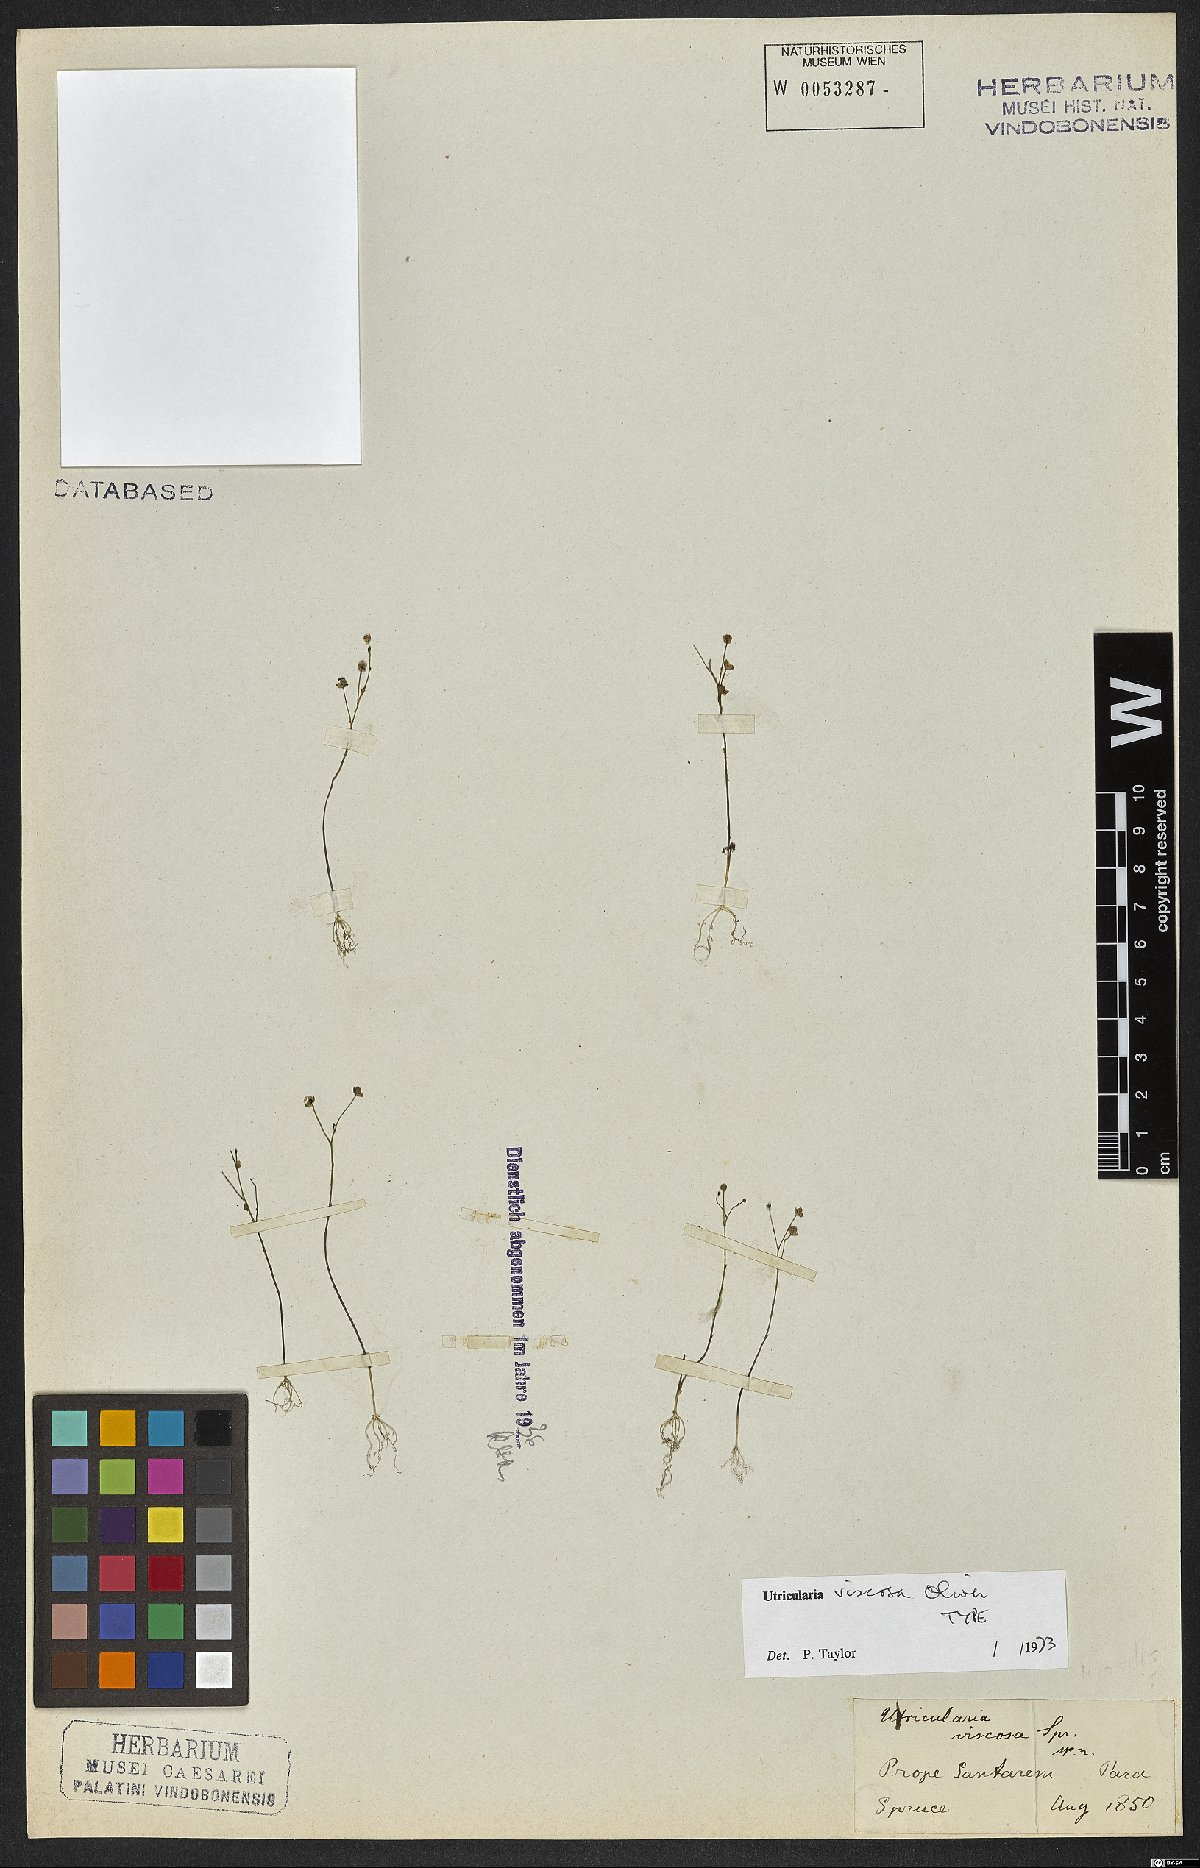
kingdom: Plantae
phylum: Tracheophyta
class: Magnoliopsida
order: Lamiales
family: Lentibulariaceae
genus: Utricularia
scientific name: Utricularia viscosa
